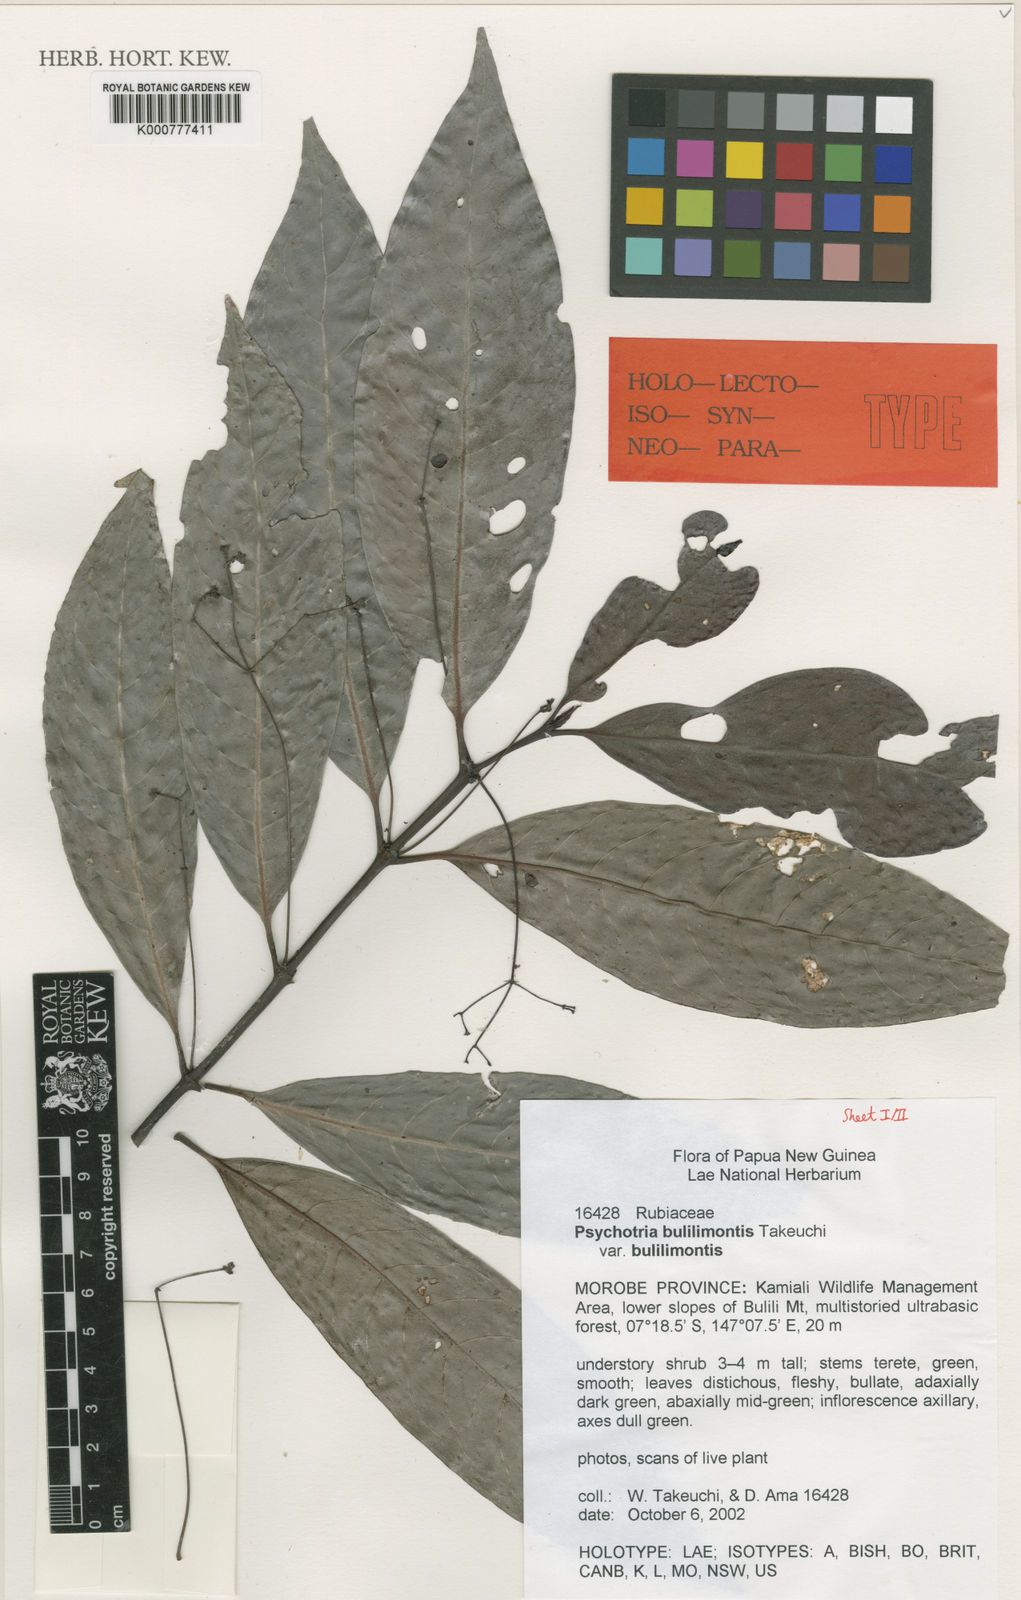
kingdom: Plantae
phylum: Tracheophyta
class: Magnoliopsida
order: Gentianales
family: Rubiaceae
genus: Psychotria
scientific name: Psychotria bulilimontis
